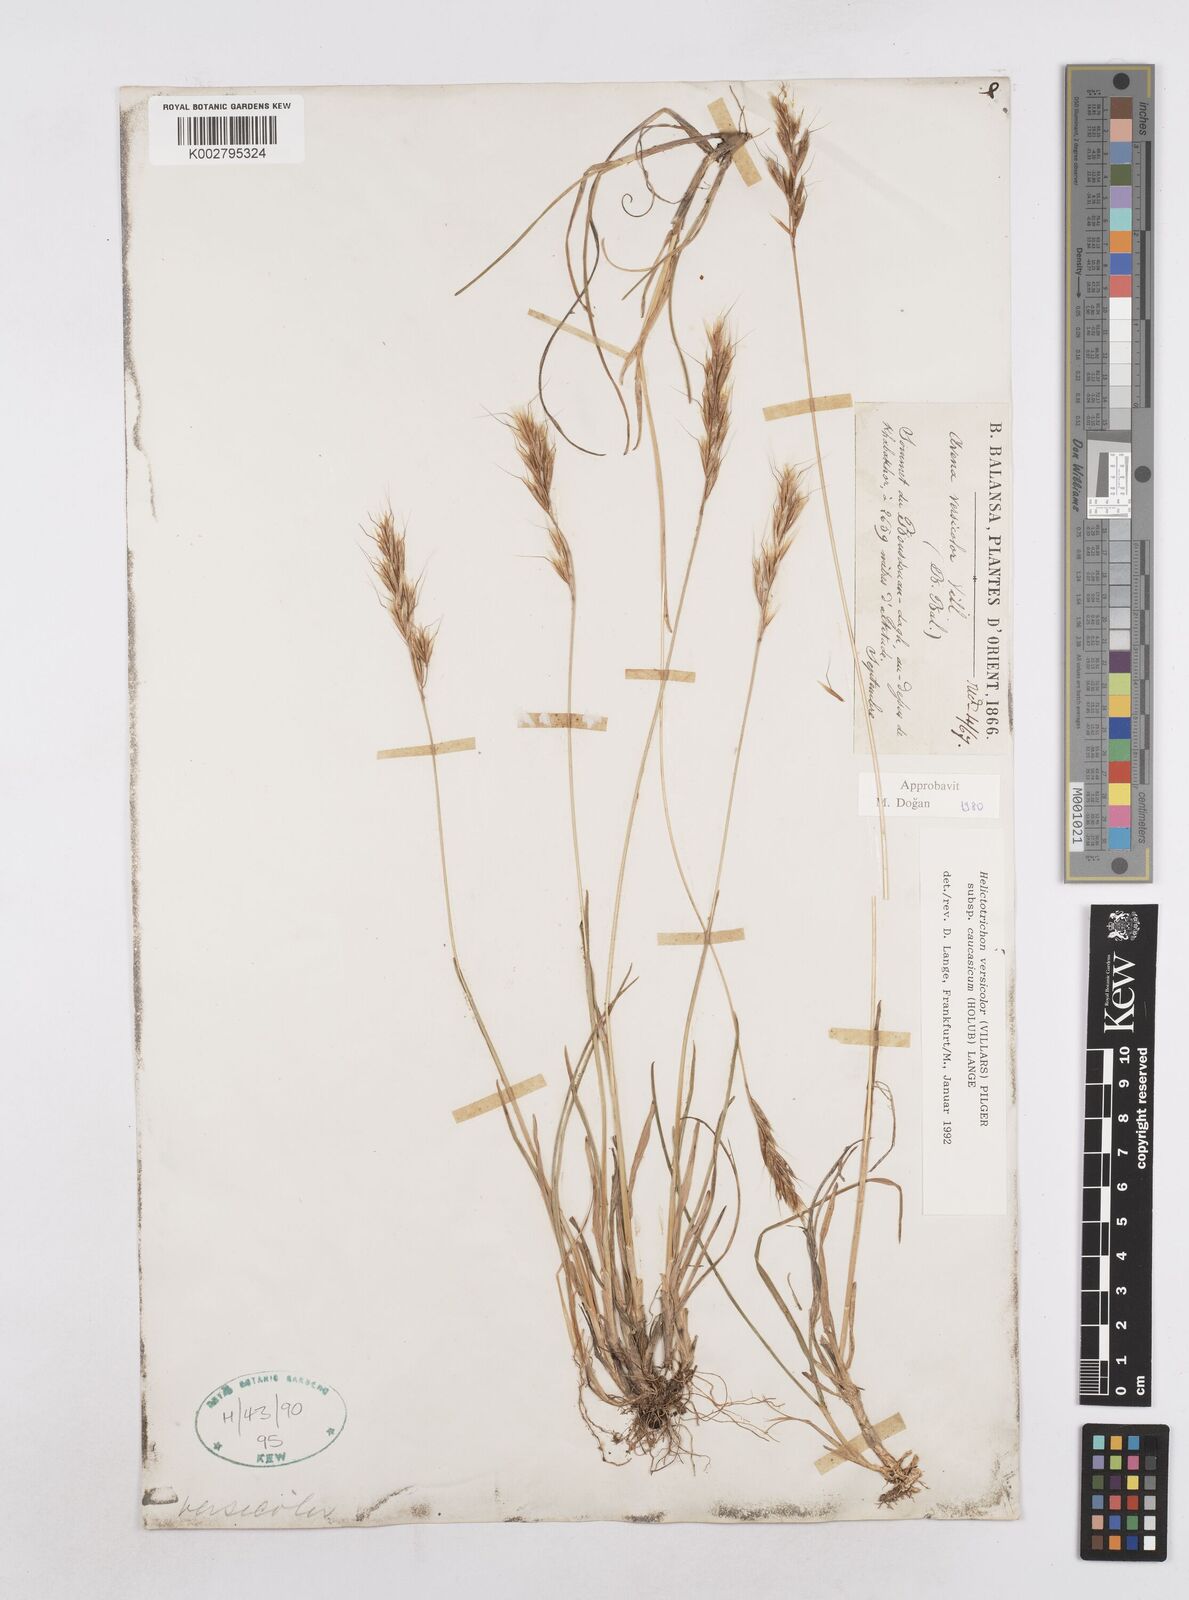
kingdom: Plantae
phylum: Tracheophyta
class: Liliopsida
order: Poales
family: Poaceae
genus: Helictochloa
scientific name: Helictochloa versicolor
